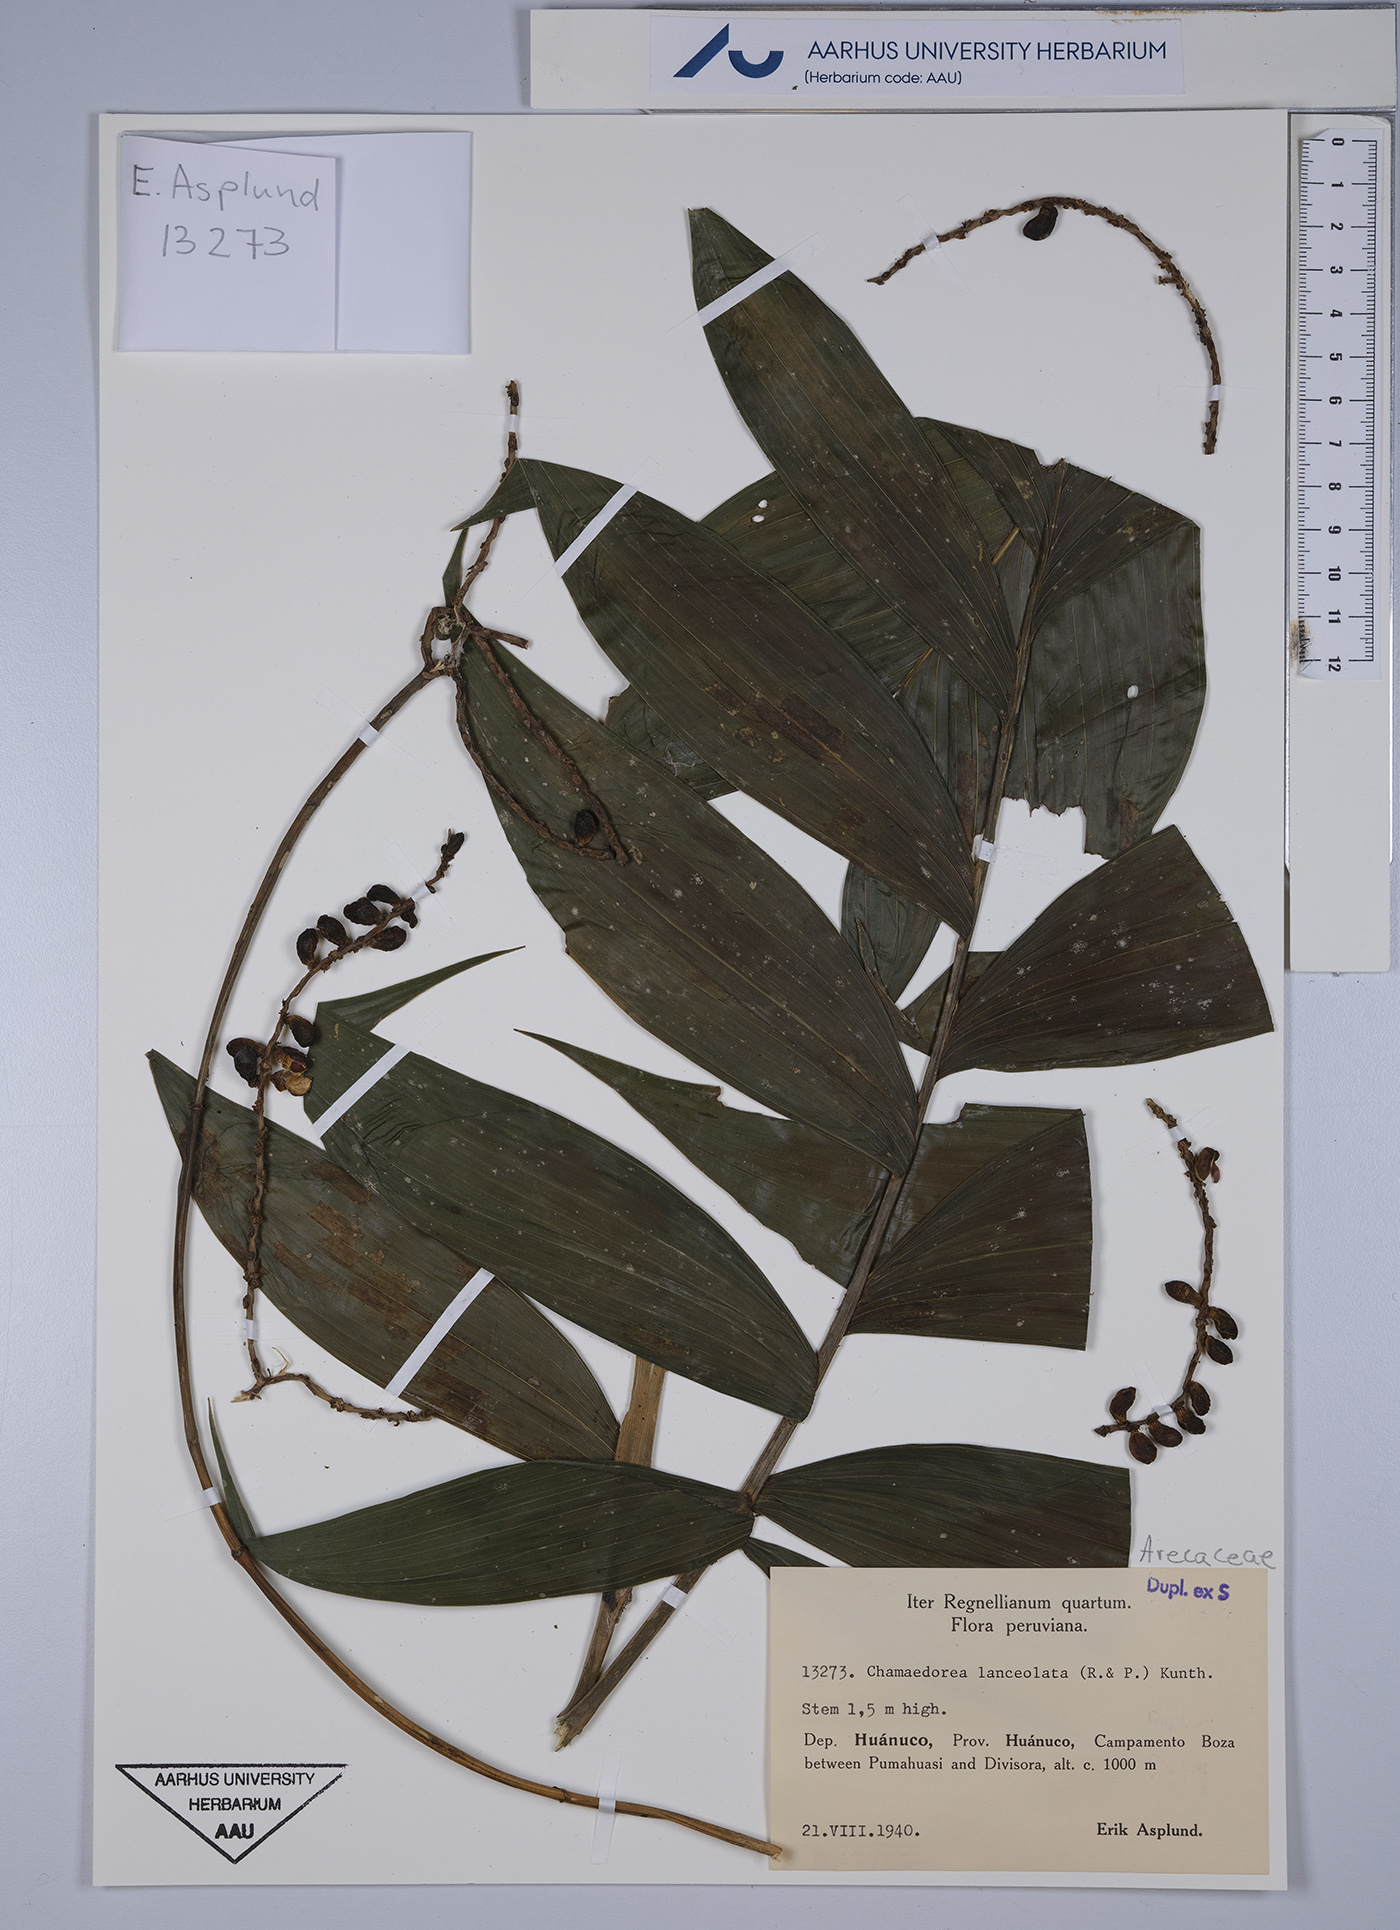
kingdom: Plantae
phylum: Tracheophyta
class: Liliopsida
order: Arecales
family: Arecaceae
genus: Chamaedorea
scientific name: Chamaedorea pinnatifrons
